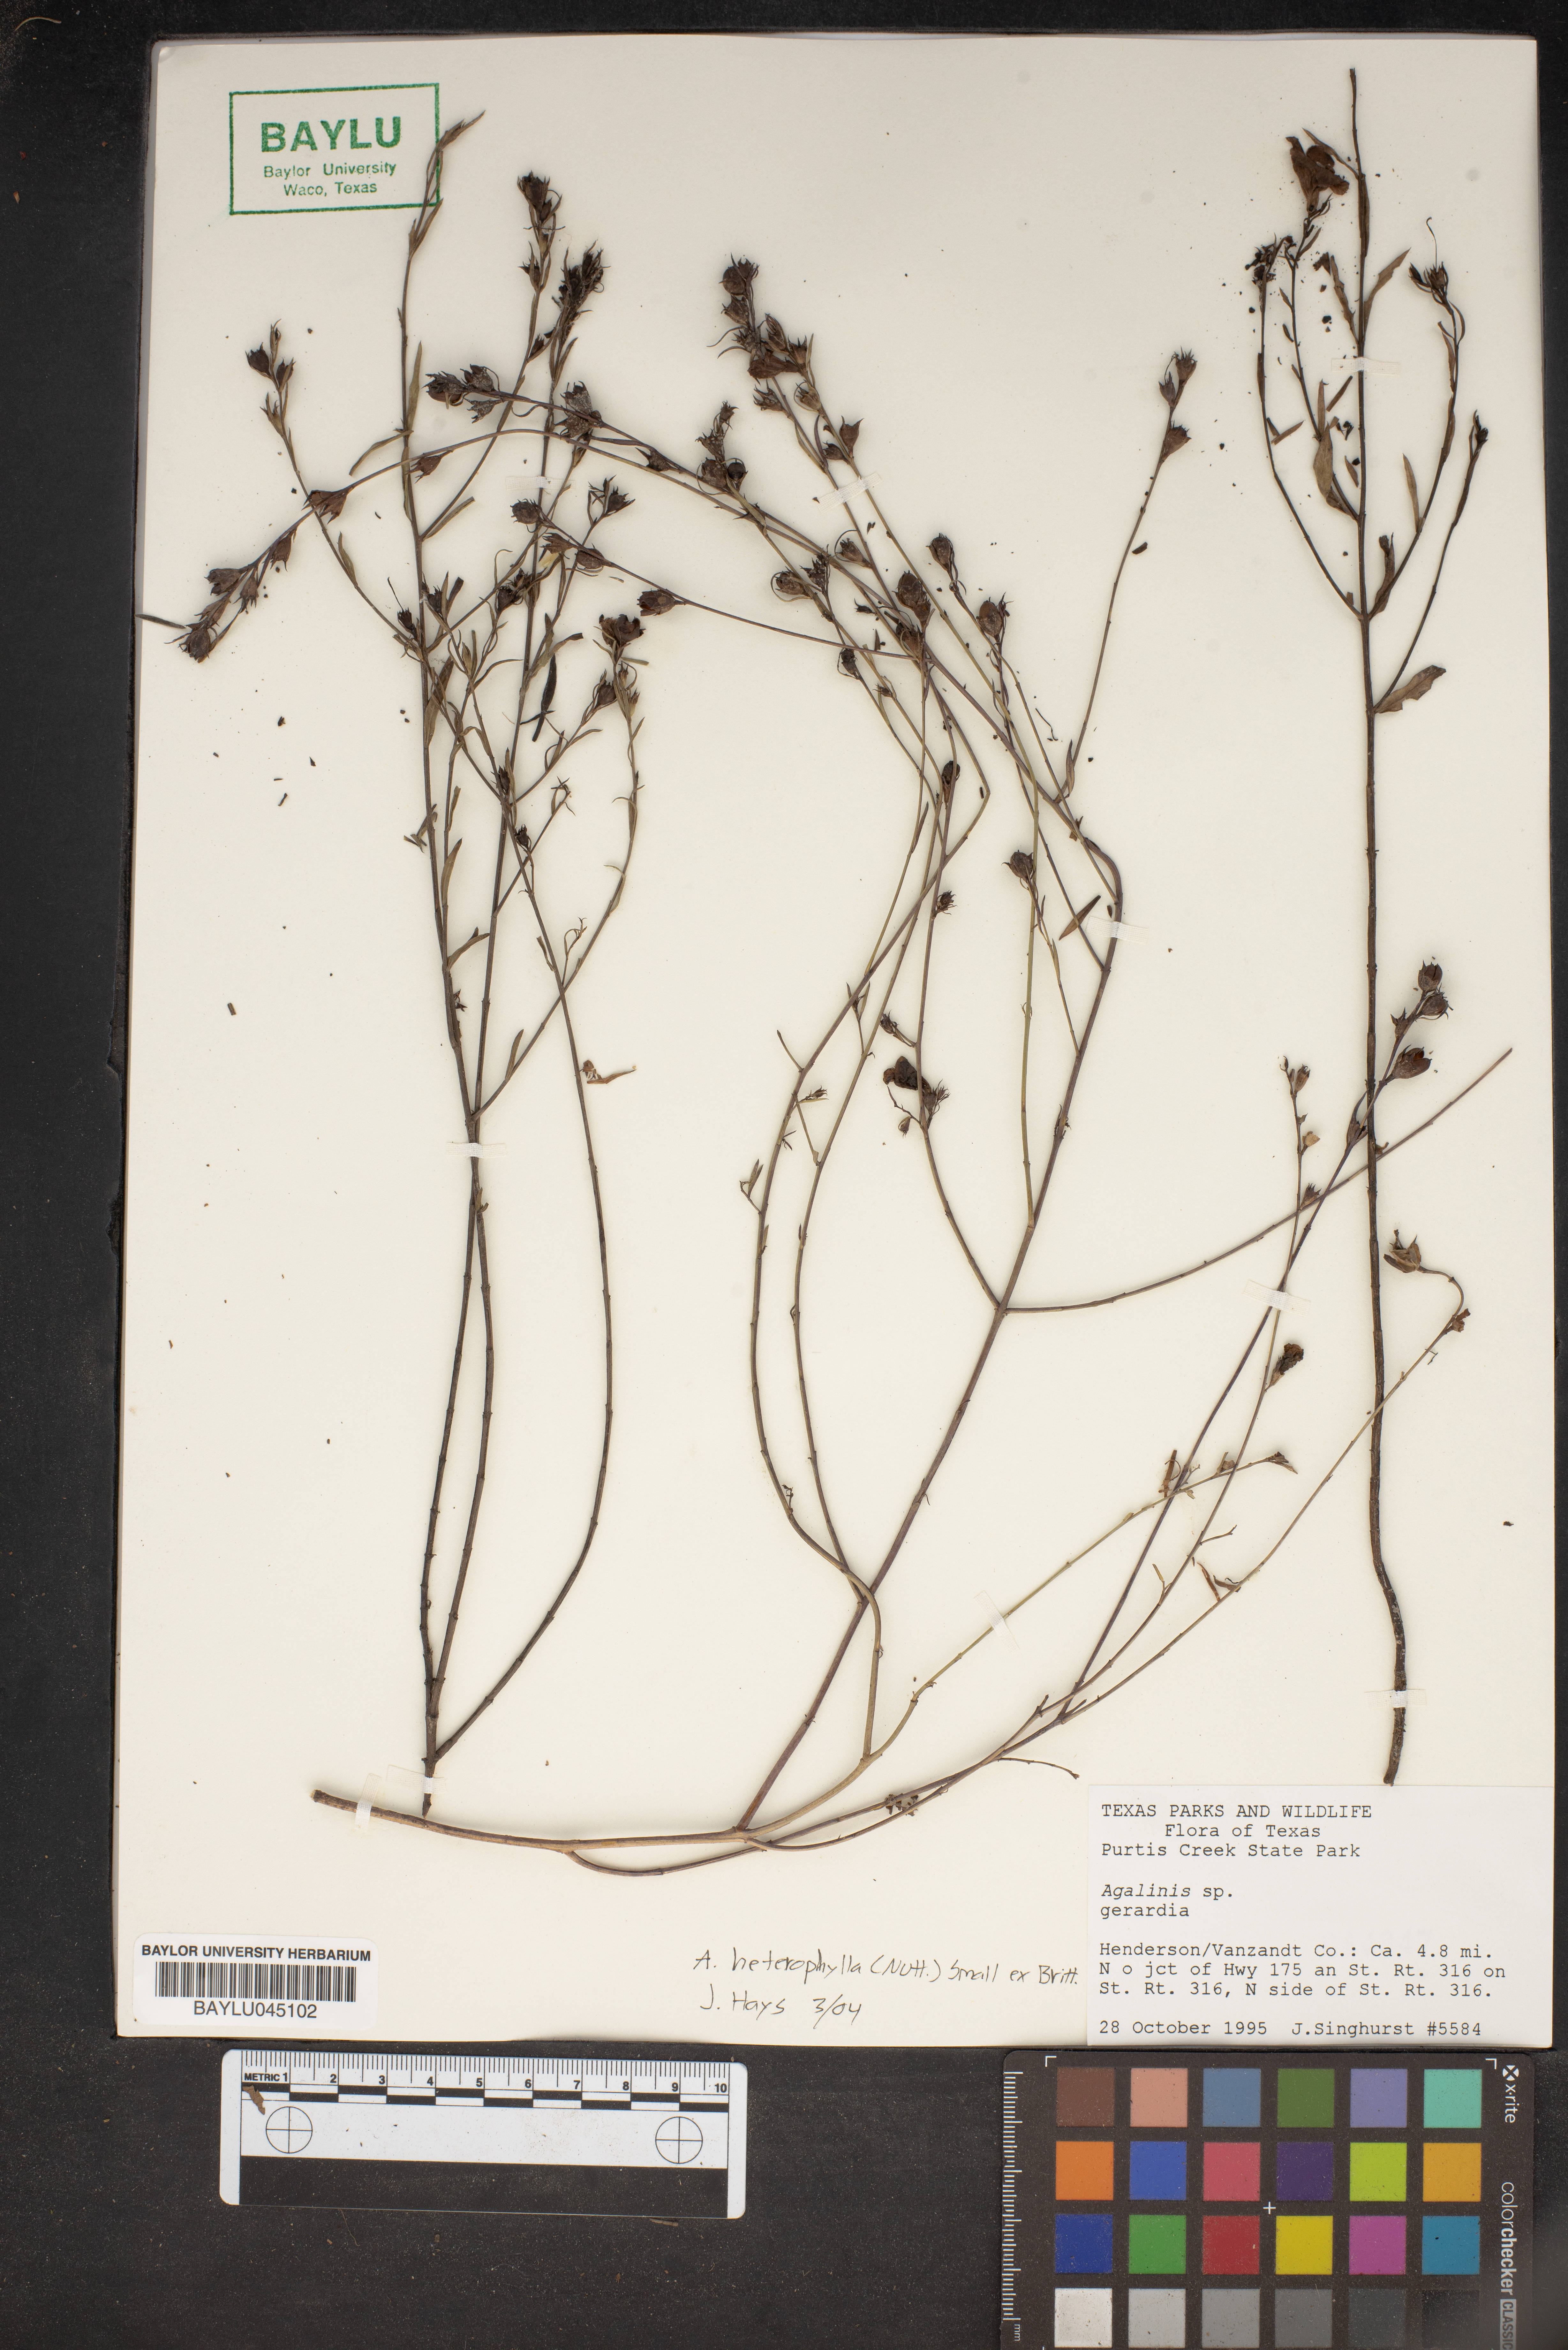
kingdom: Plantae
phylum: Tracheophyta
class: Magnoliopsida
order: Lamiales
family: Orobanchaceae
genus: Agalinis
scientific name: Agalinis
